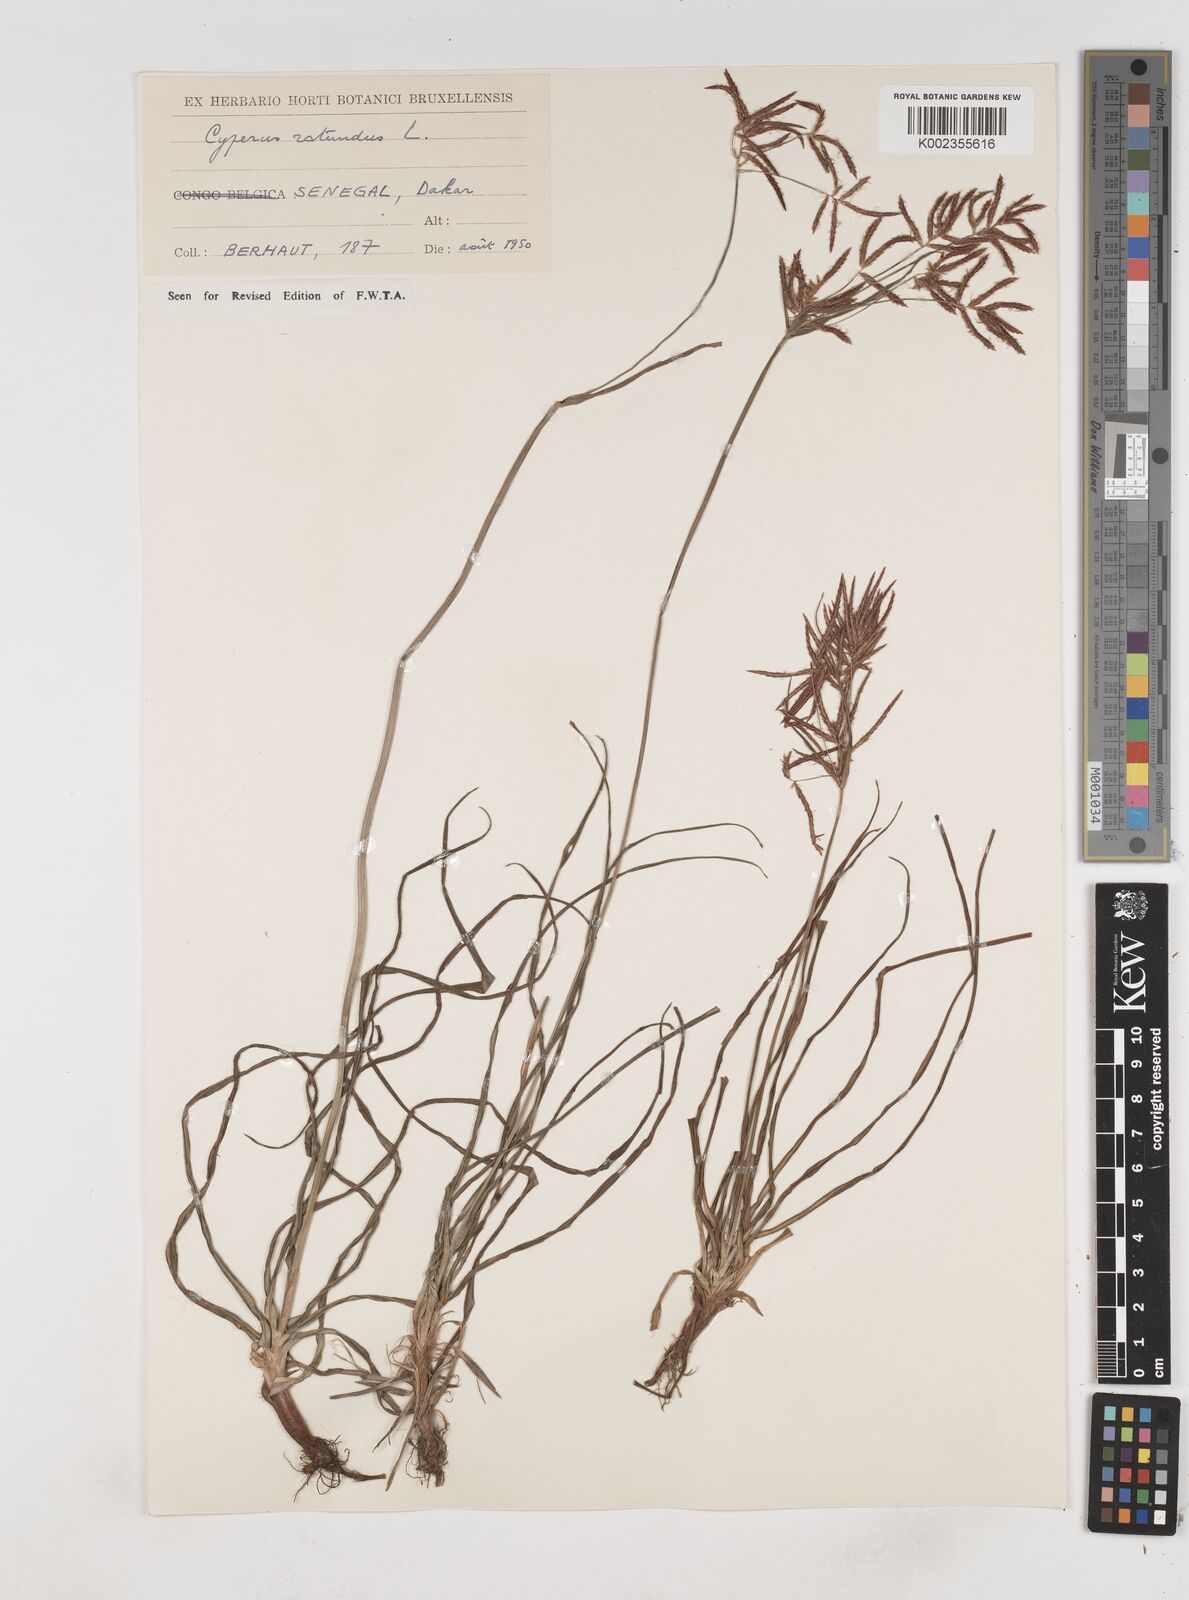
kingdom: Plantae
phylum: Tracheophyta
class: Liliopsida
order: Poales
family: Cyperaceae
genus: Cyperus
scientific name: Cyperus rotundus
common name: Nutgrass
